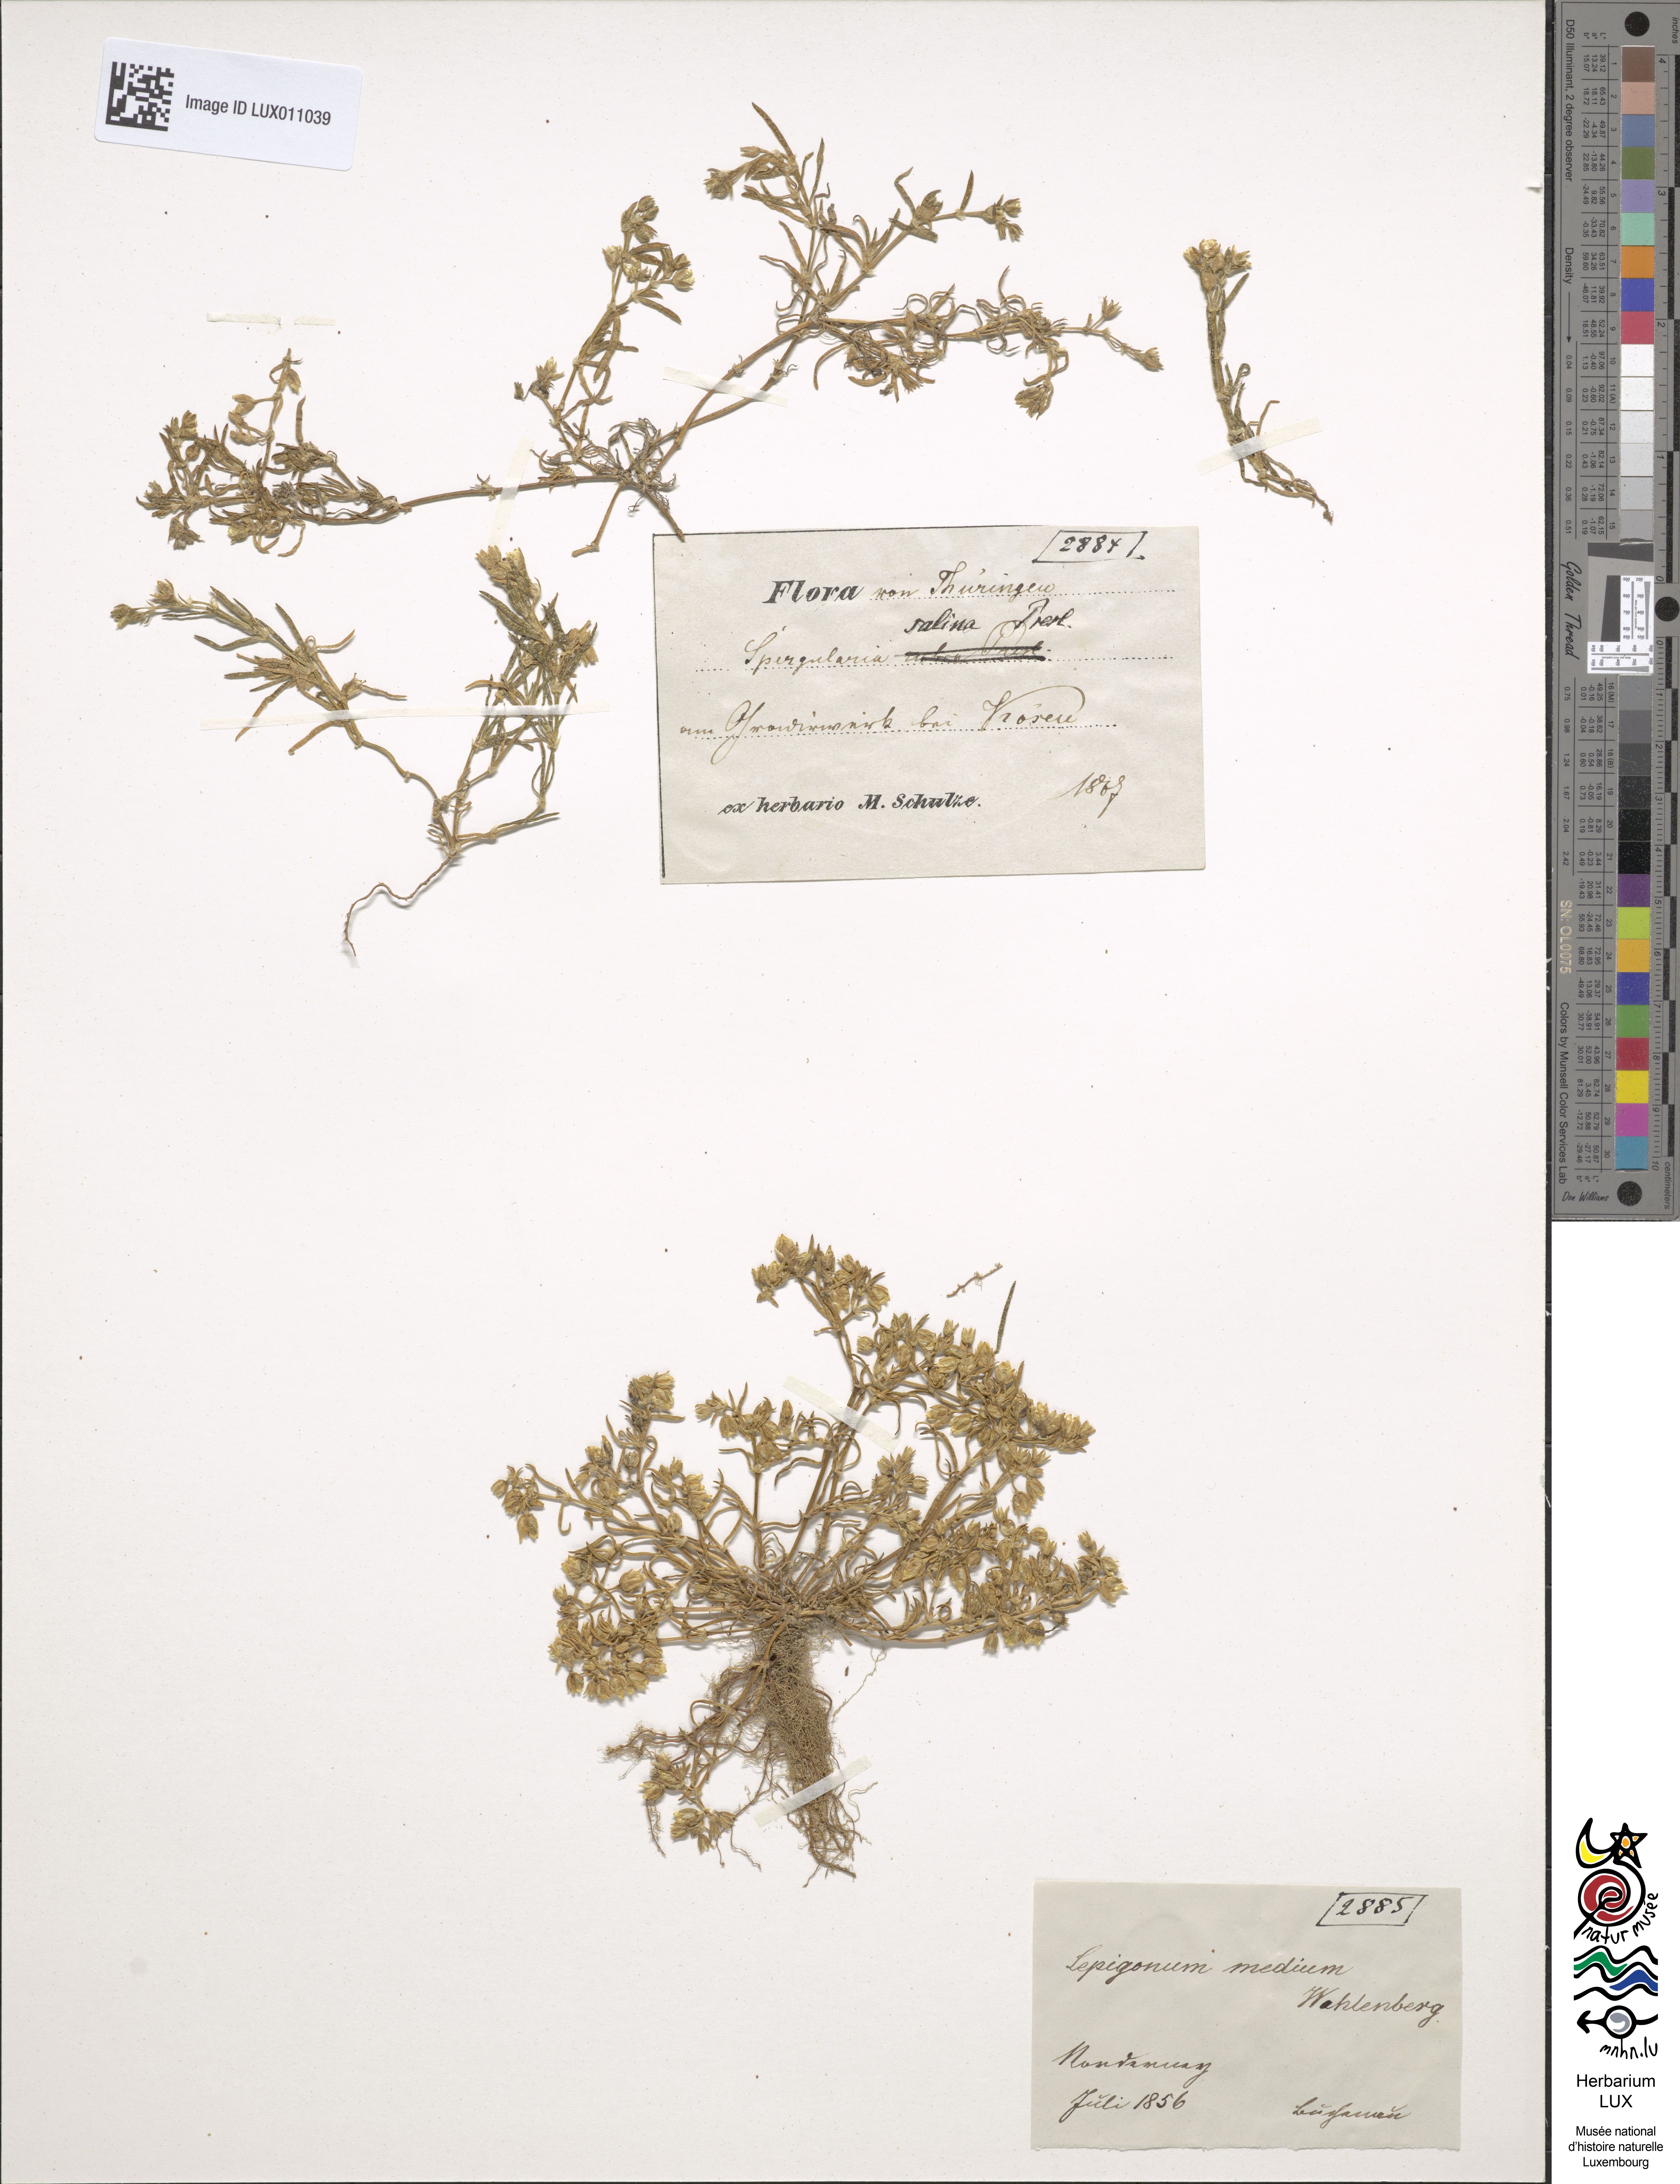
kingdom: Plantae
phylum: Tracheophyta
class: Magnoliopsida
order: Caryophyllales
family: Caryophyllaceae
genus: Spergularia
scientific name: Spergularia marina
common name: Lesser sea-spurrey
